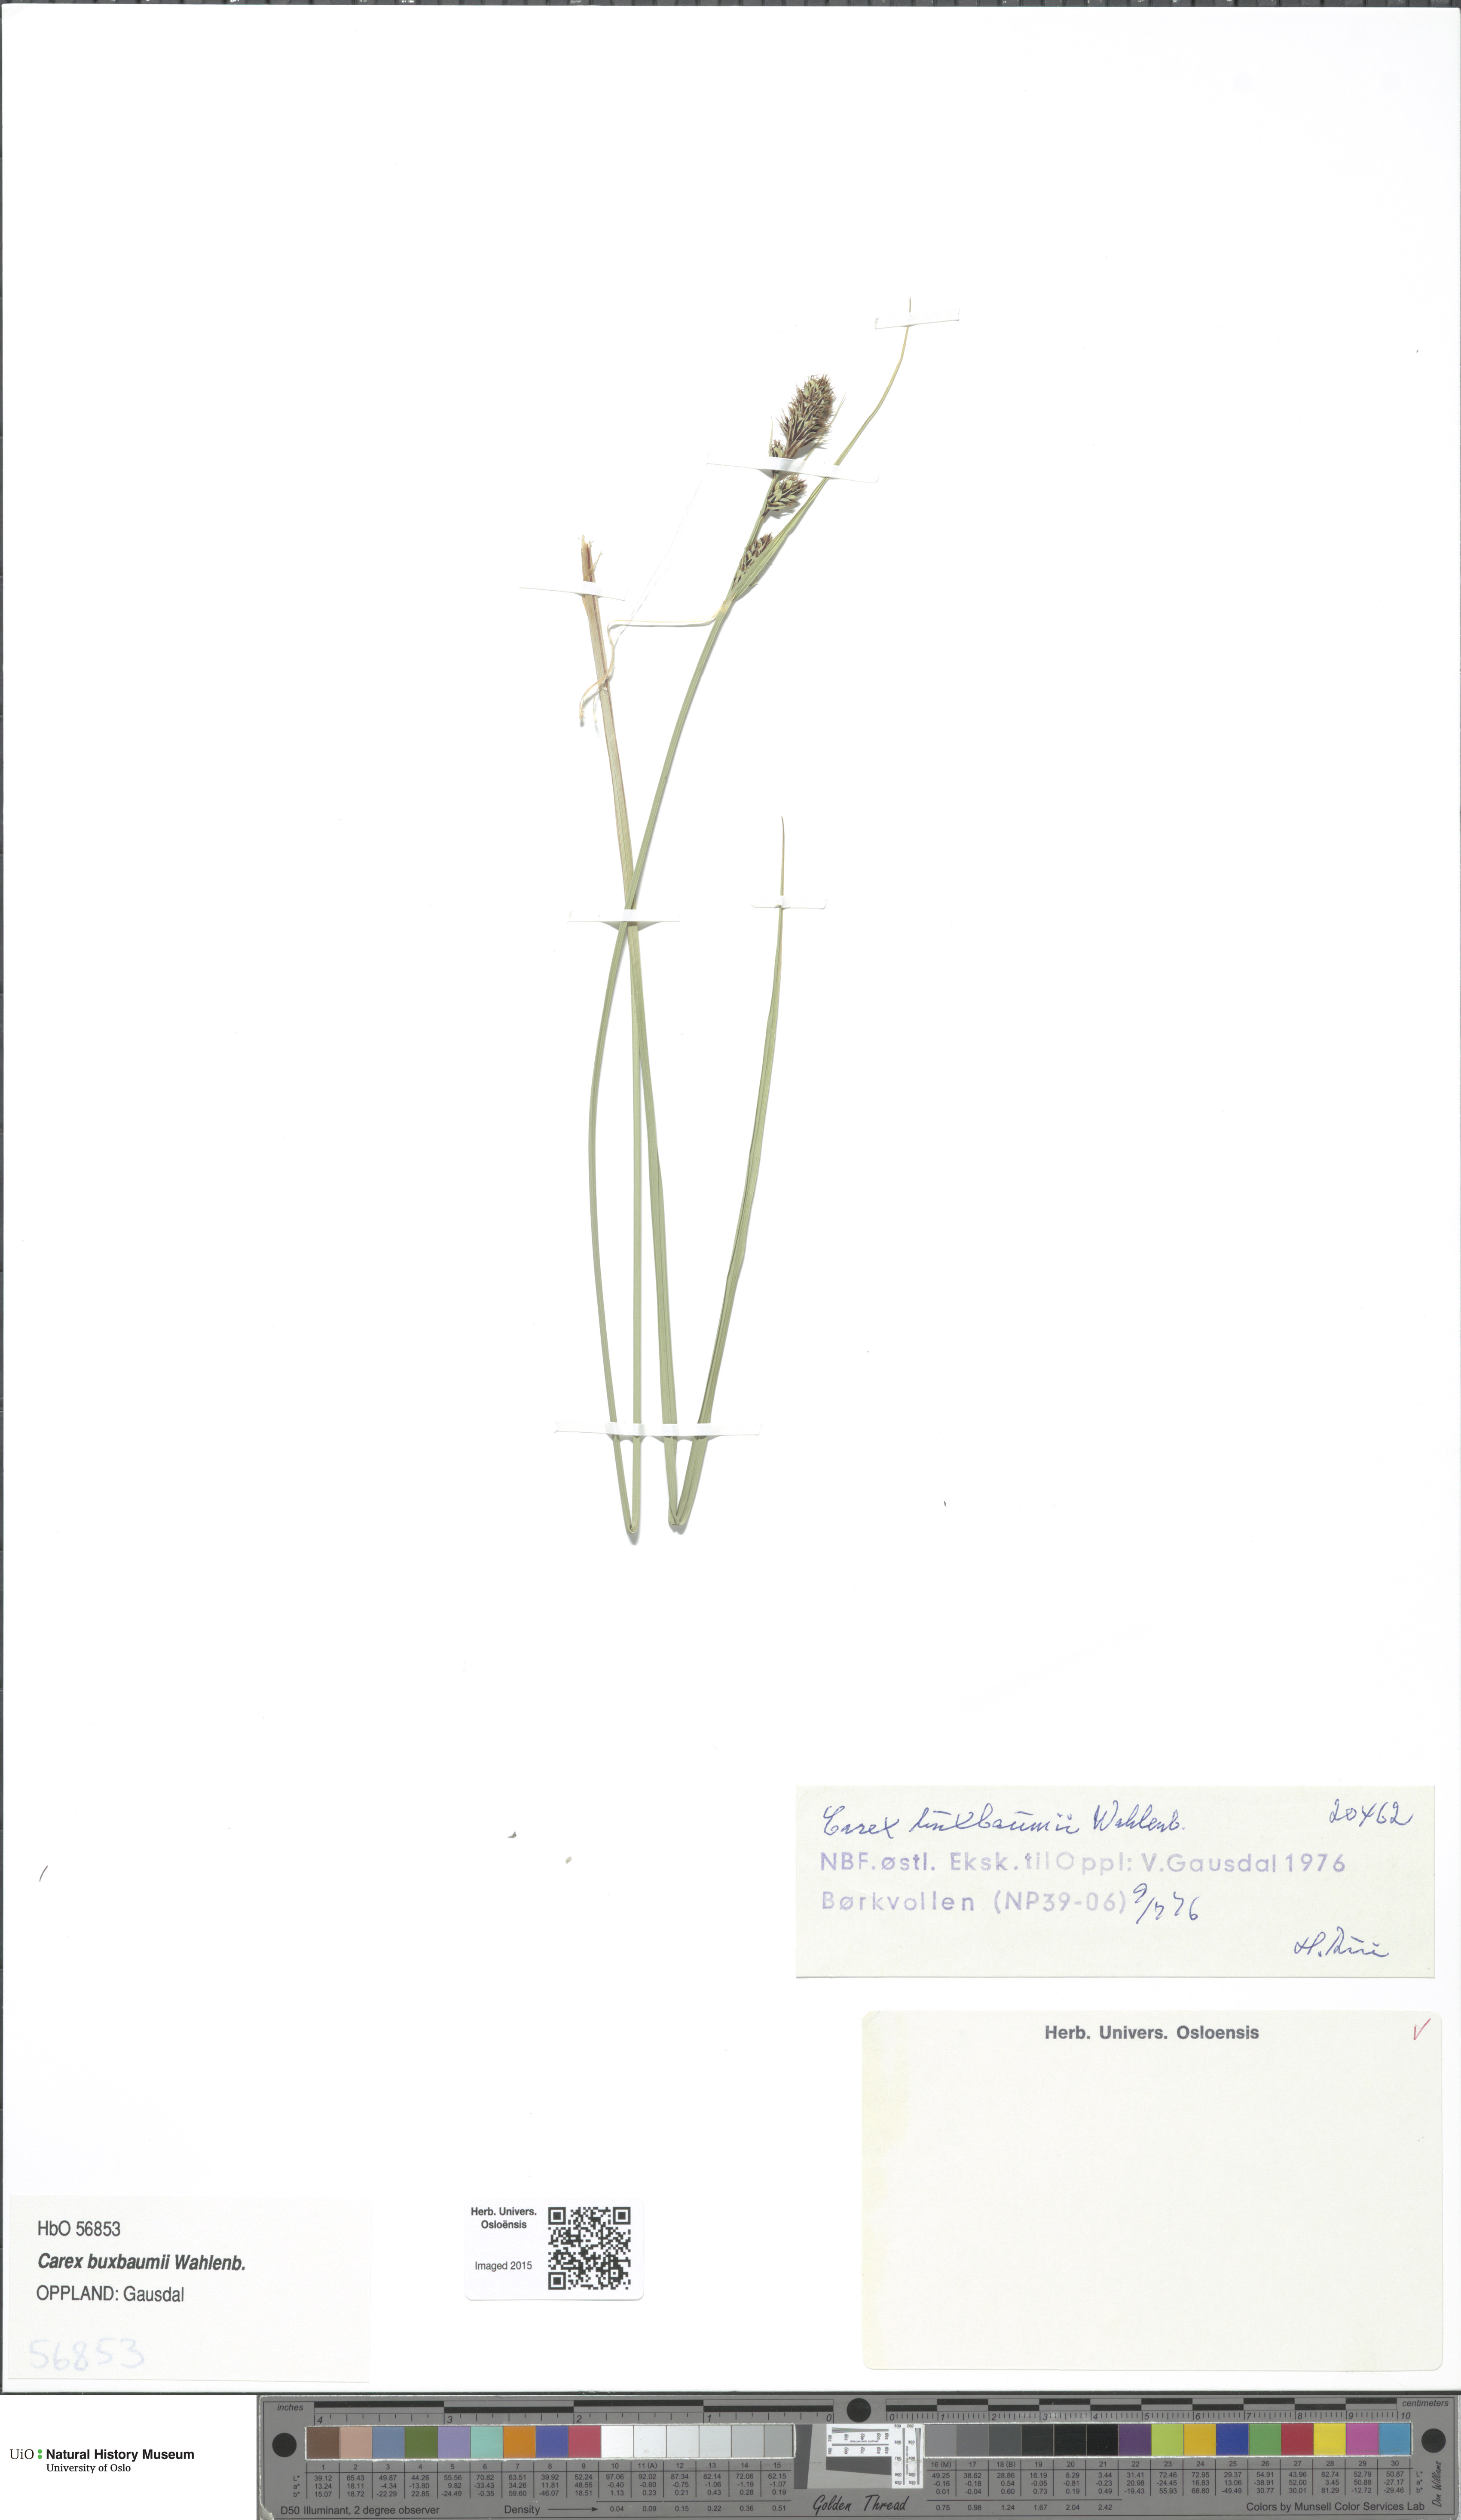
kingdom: Plantae
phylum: Tracheophyta
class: Liliopsida
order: Poales
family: Cyperaceae
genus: Carex
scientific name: Carex buxbaumii
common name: Club sedge
